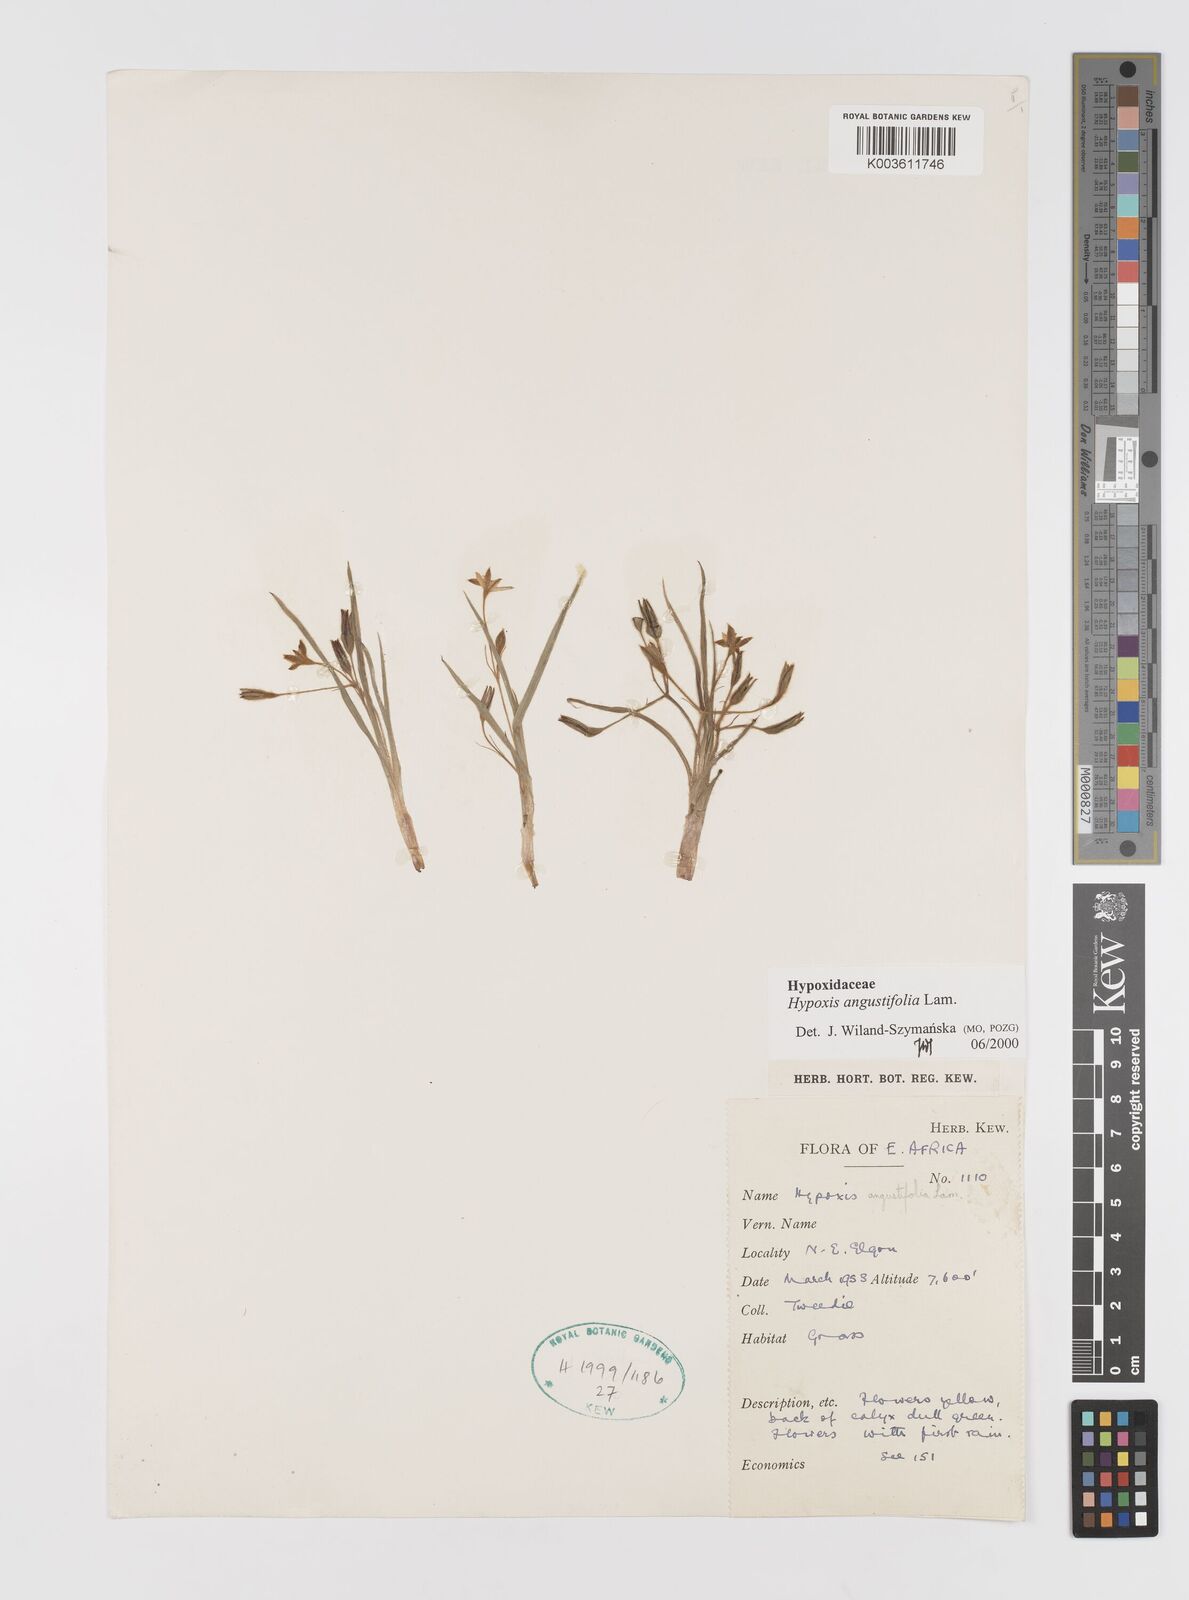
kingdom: Plantae
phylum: Tracheophyta
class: Liliopsida
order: Asparagales
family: Hypoxidaceae
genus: Hypoxis
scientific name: Hypoxis angustifolia
